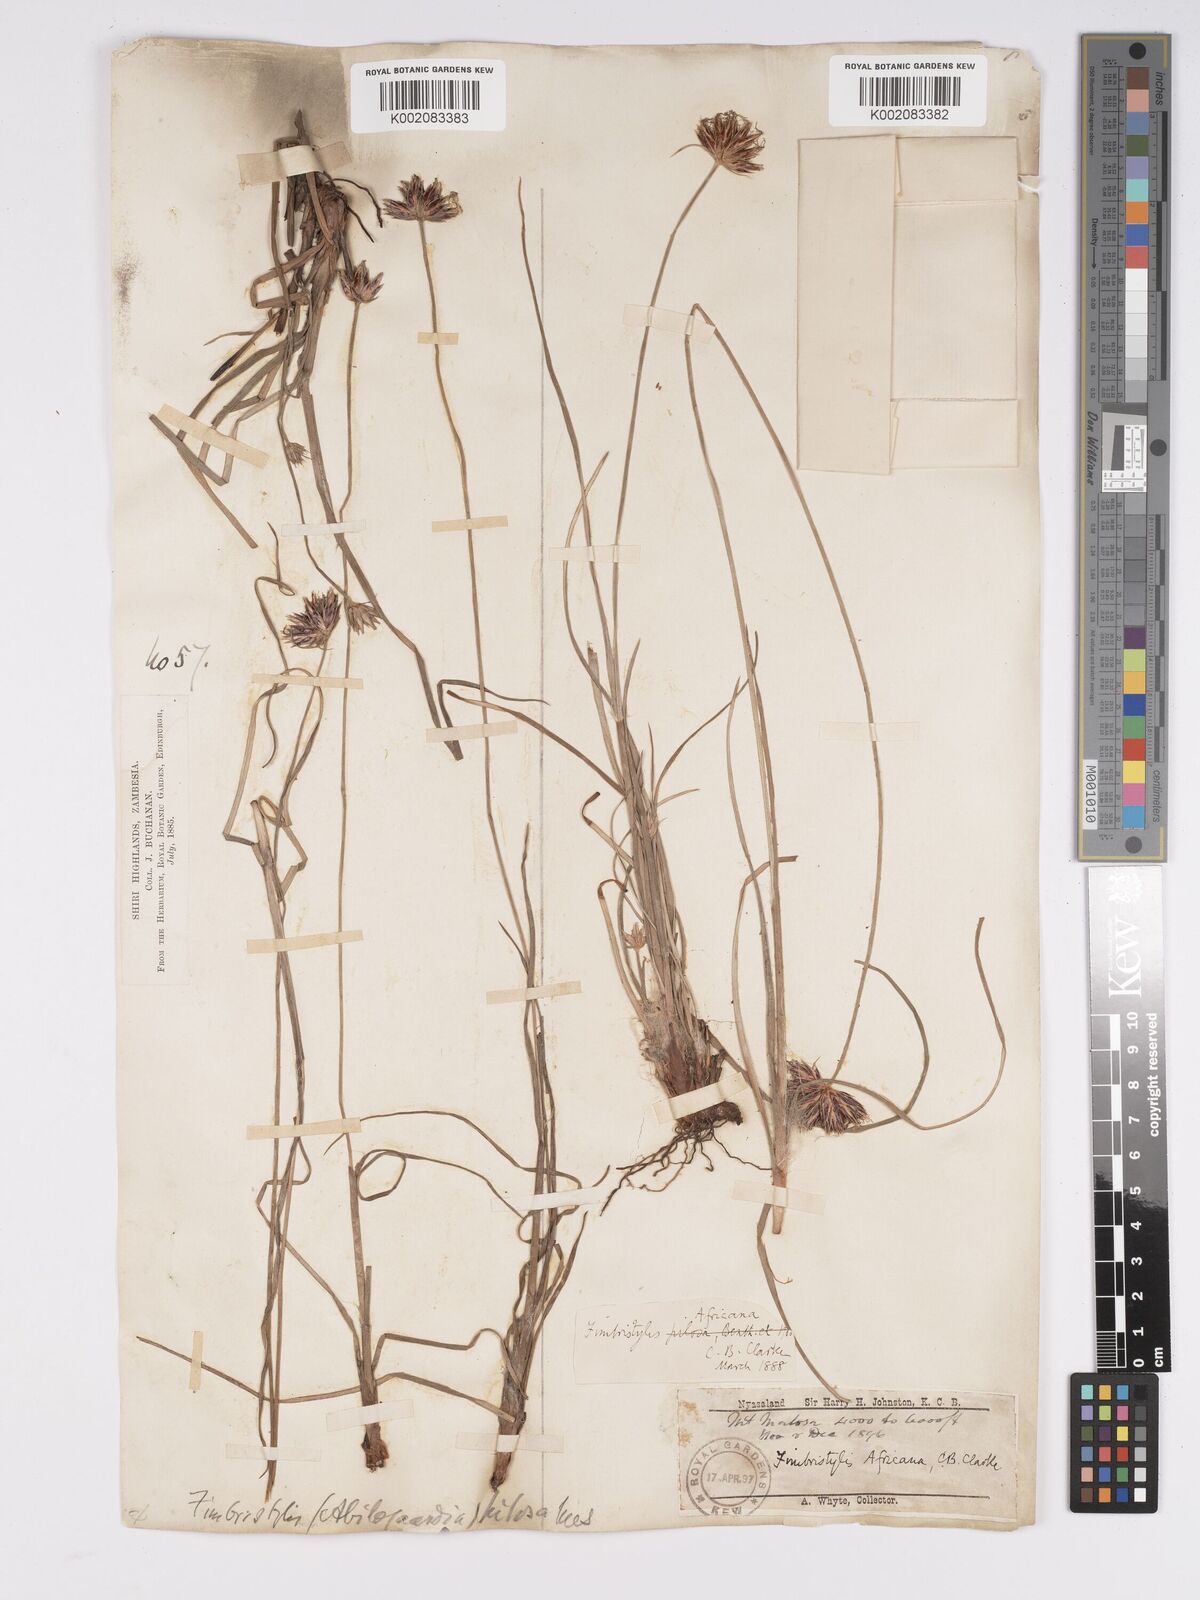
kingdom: Plantae
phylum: Tracheophyta
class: Liliopsida
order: Poales
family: Cyperaceae
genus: Bulbostylis
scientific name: Bulbostylis pilosa
